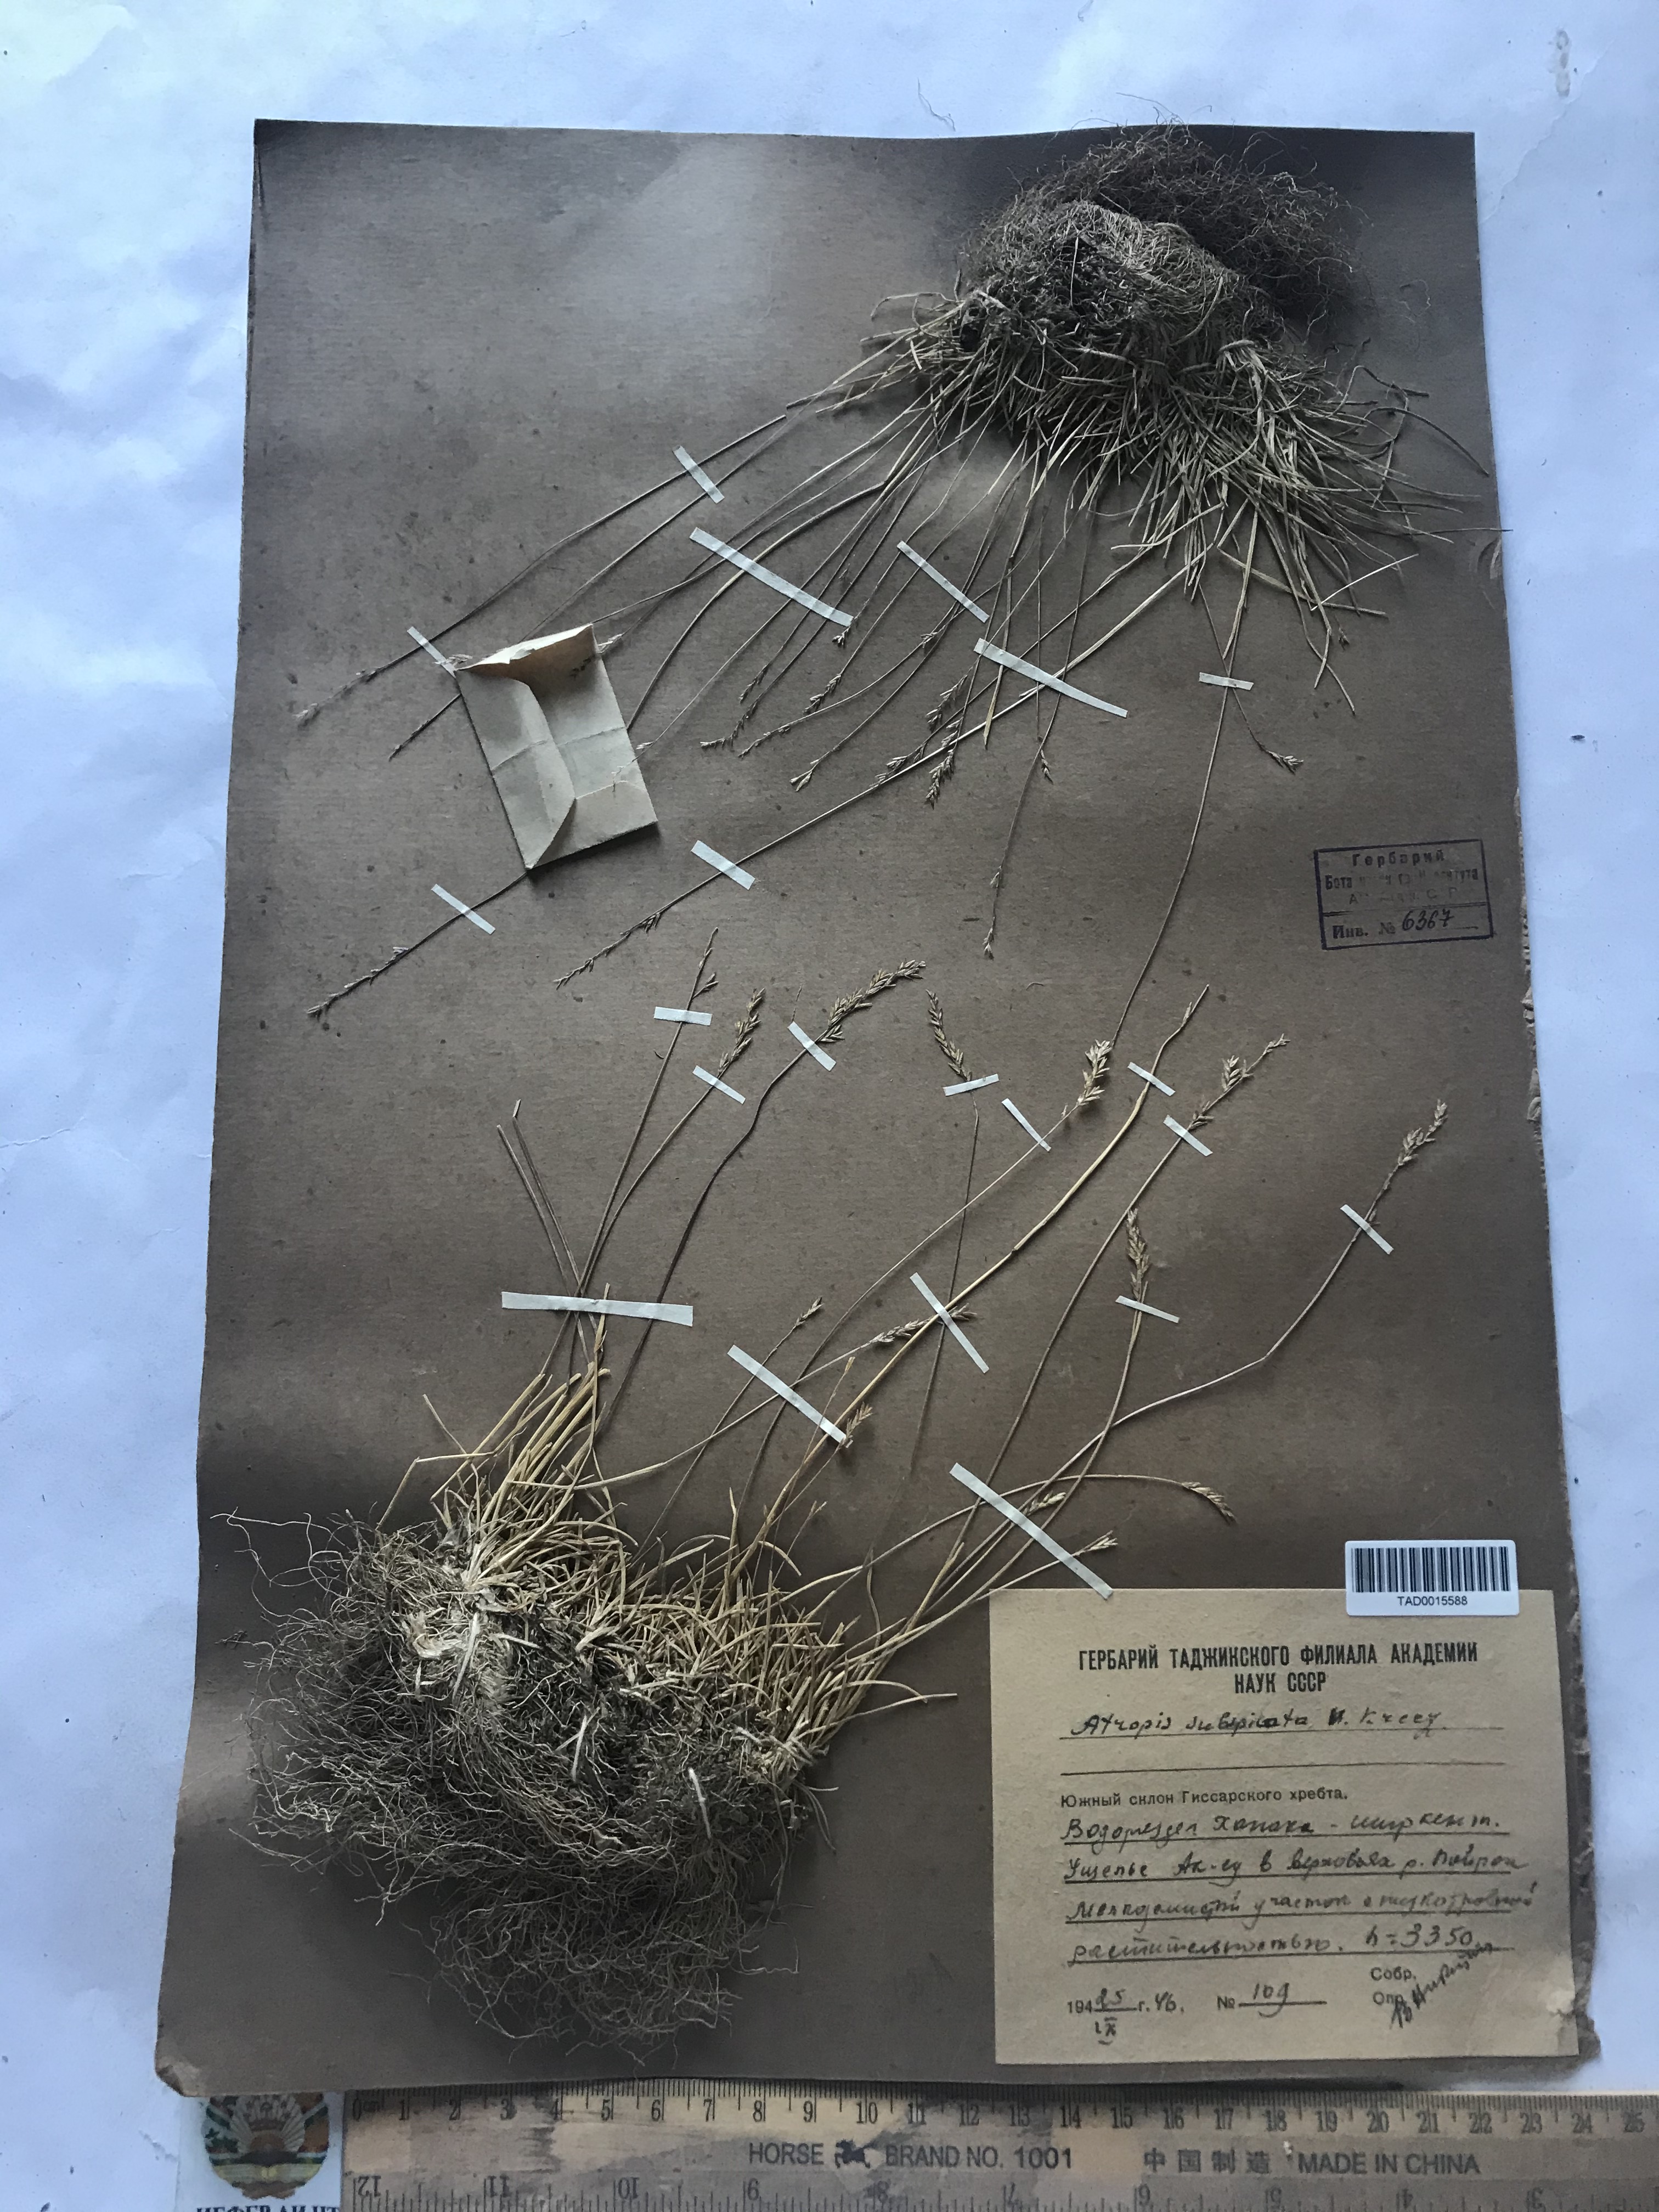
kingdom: Plantae
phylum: Tracheophyta
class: Liliopsida
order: Poales
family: Poaceae
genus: Puccinellia
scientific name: Puccinellia subspicata
